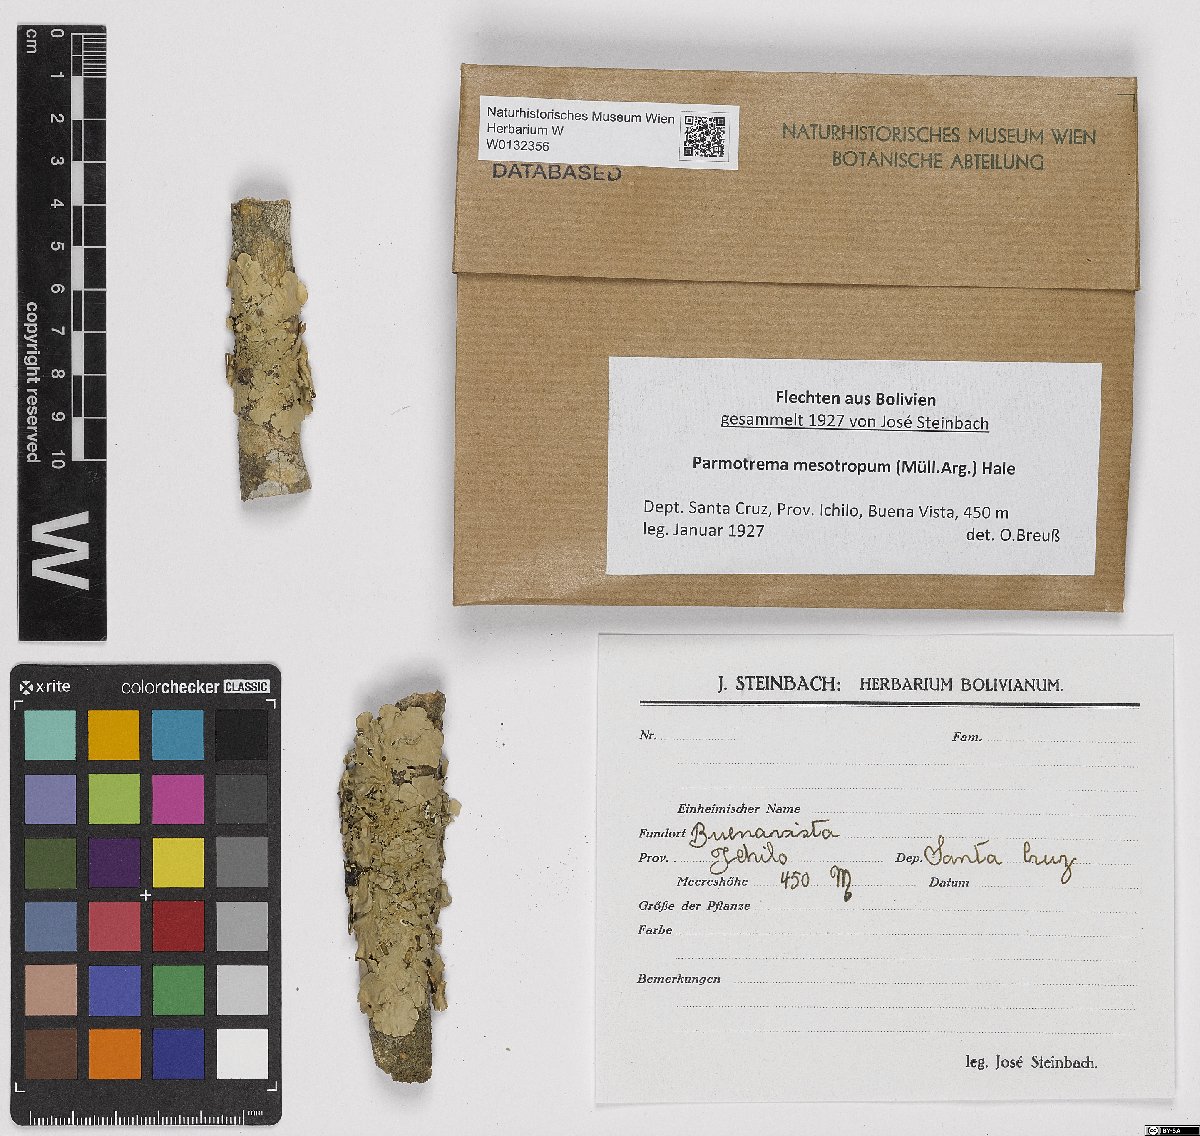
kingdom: Fungi
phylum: Ascomycota
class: Lecanoromycetes
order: Lecanorales
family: Parmeliaceae
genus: Parmotrema
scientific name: Parmotrema mesotropum
